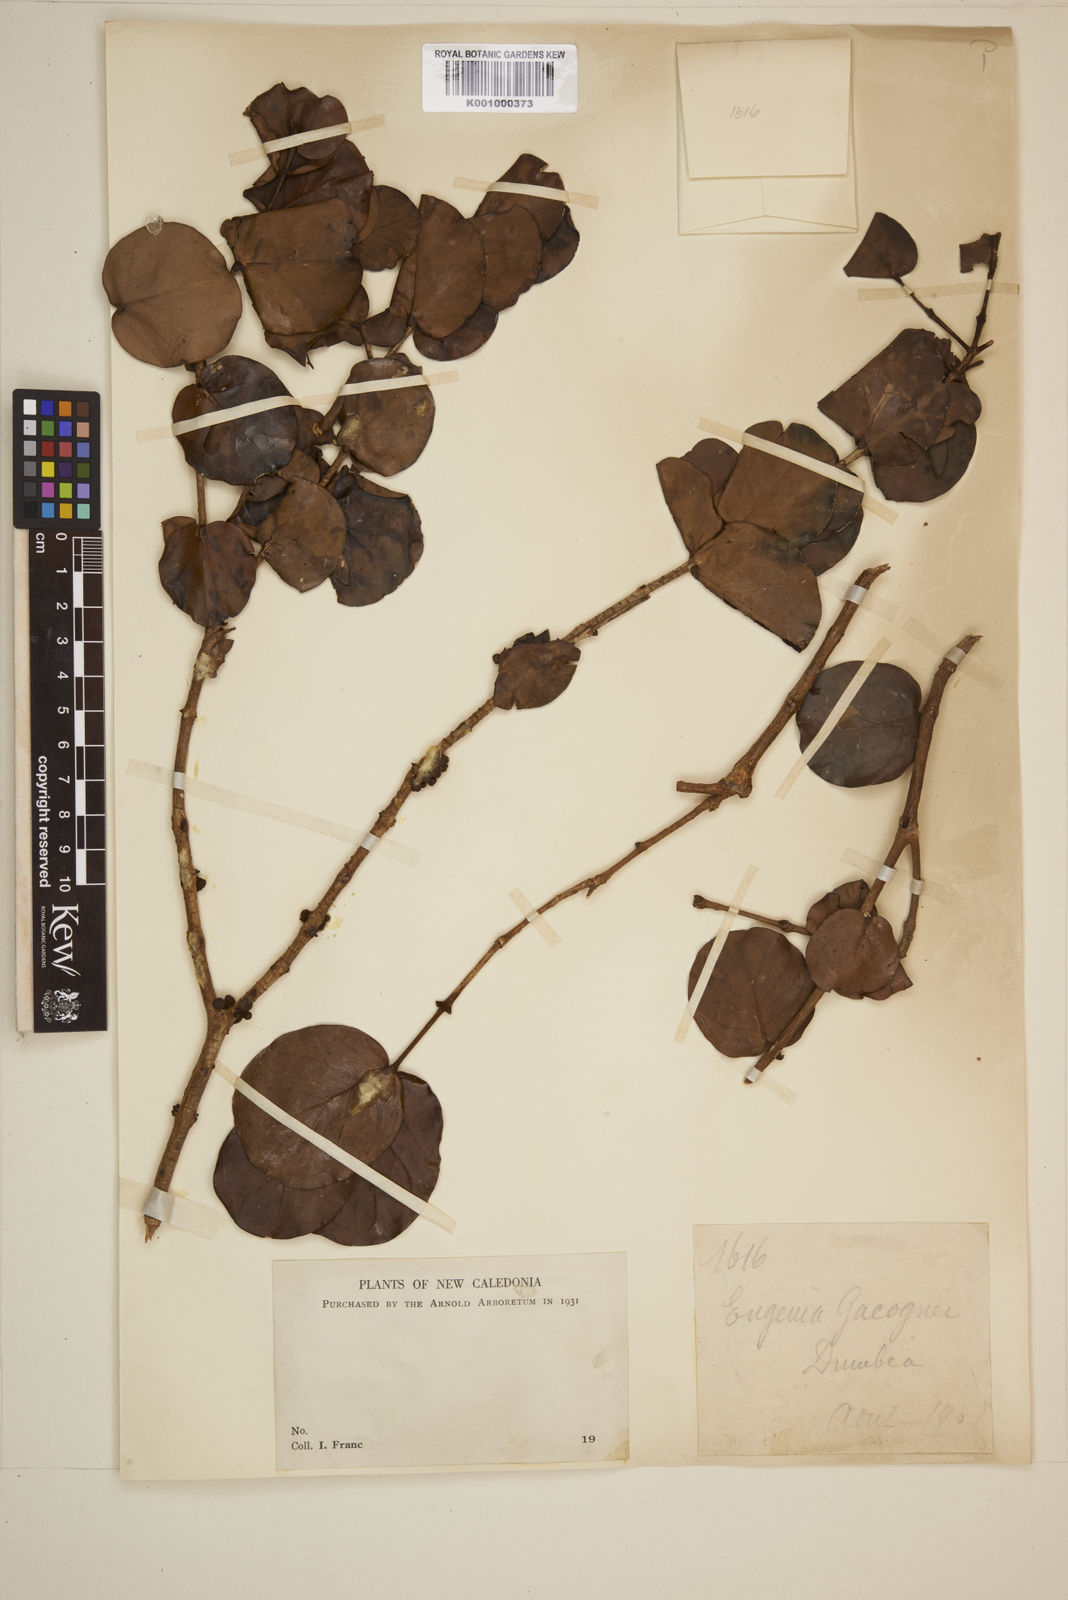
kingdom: Plantae
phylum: Tracheophyta
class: Magnoliopsida
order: Myrtales
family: Myrtaceae
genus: Eugenia
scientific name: Eugenia gacognei
